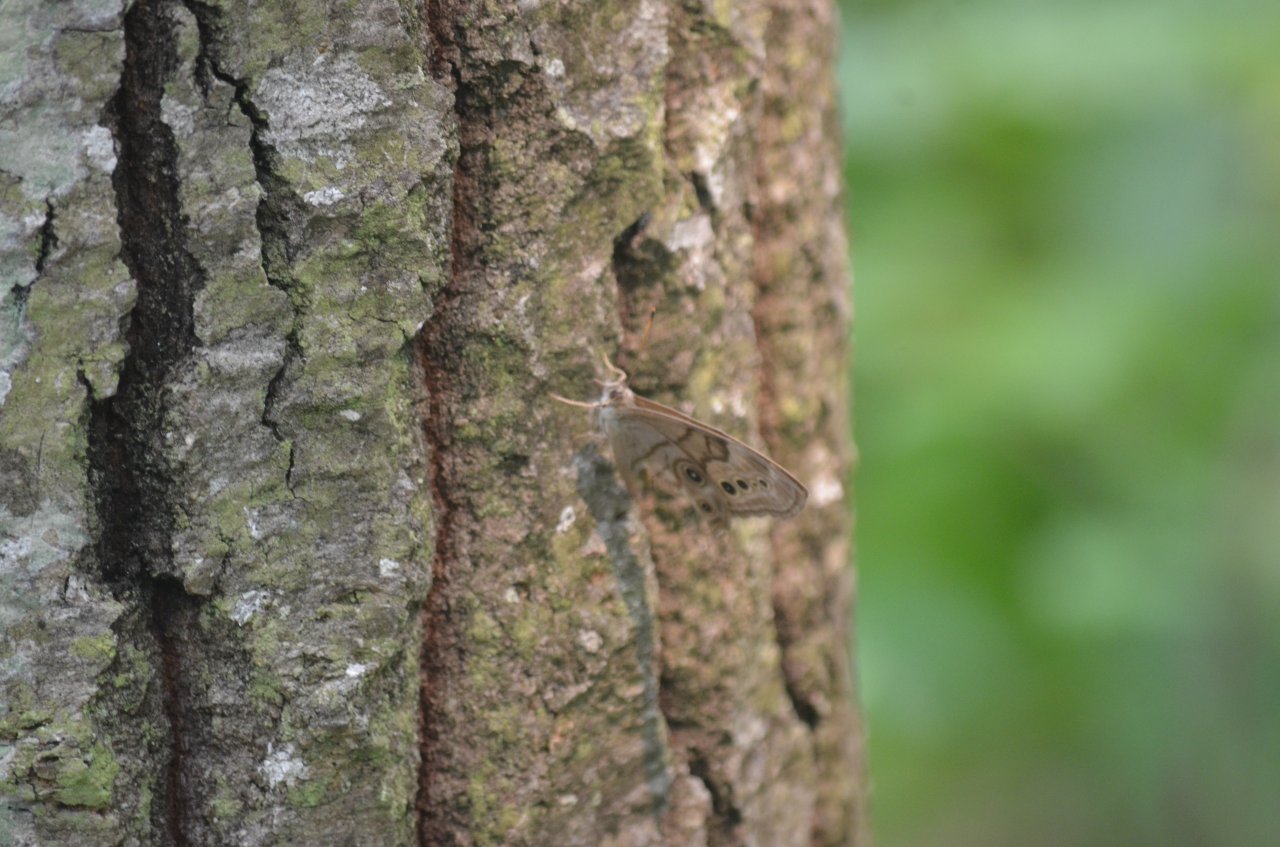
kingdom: Animalia
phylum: Arthropoda
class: Insecta
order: Lepidoptera
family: Nymphalidae
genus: Lethe
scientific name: Lethe anthedon
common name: Northern Pearly-Eye
